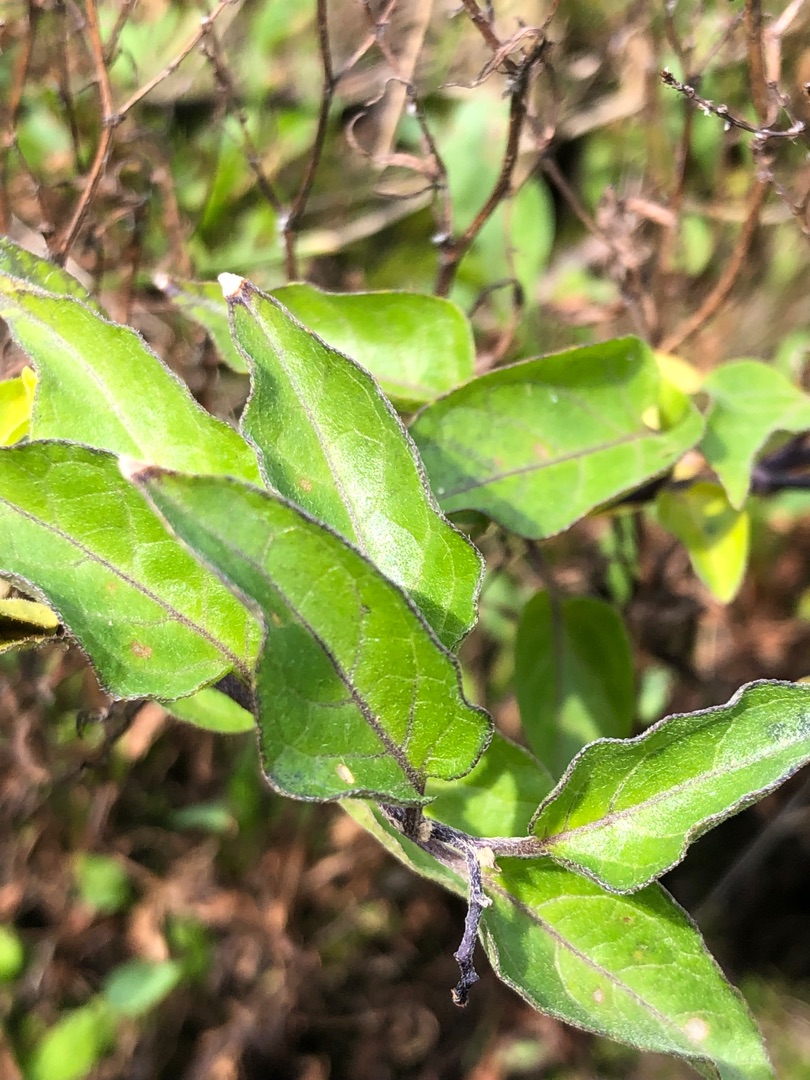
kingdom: Plantae
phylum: Tracheophyta
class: Magnoliopsida
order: Solanales
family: Solanaceae
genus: Solanum
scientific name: Solanum dulcamara
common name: Bittersød natskygge
